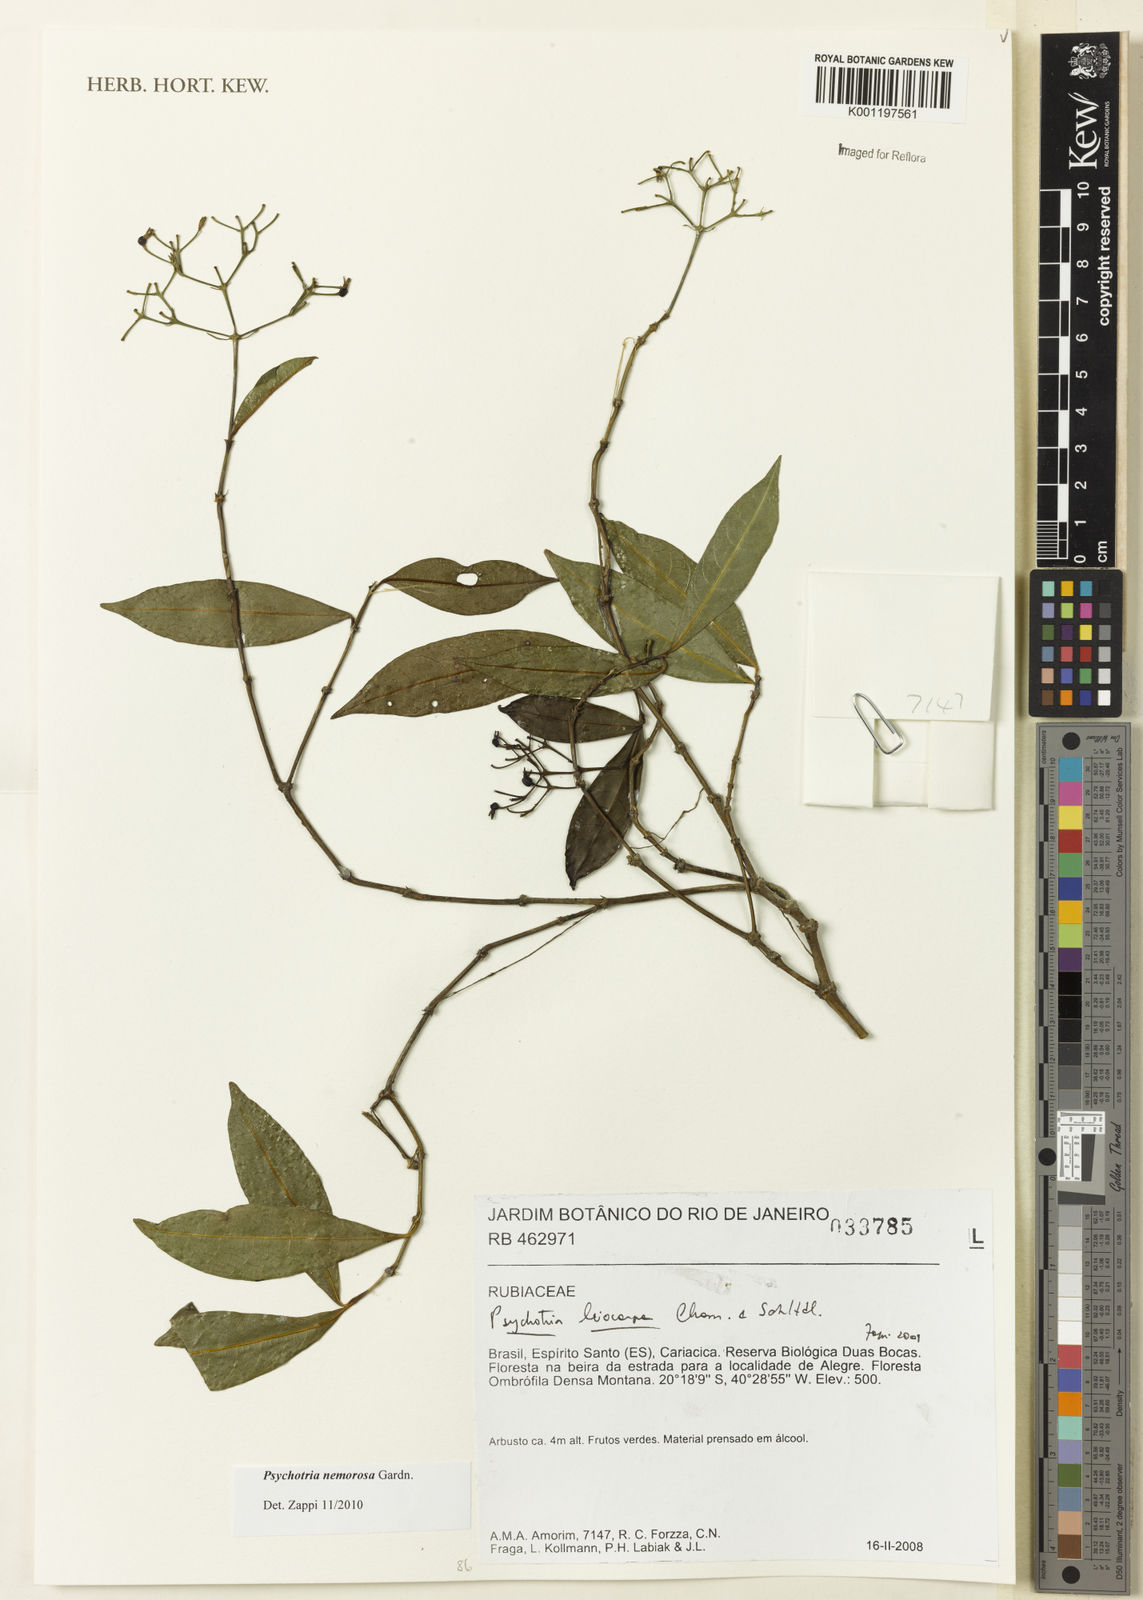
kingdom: Plantae
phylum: Tracheophyta
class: Magnoliopsida
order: Gentianales
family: Rubiaceae
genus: Psychotria
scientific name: Psychotria nemorosa
